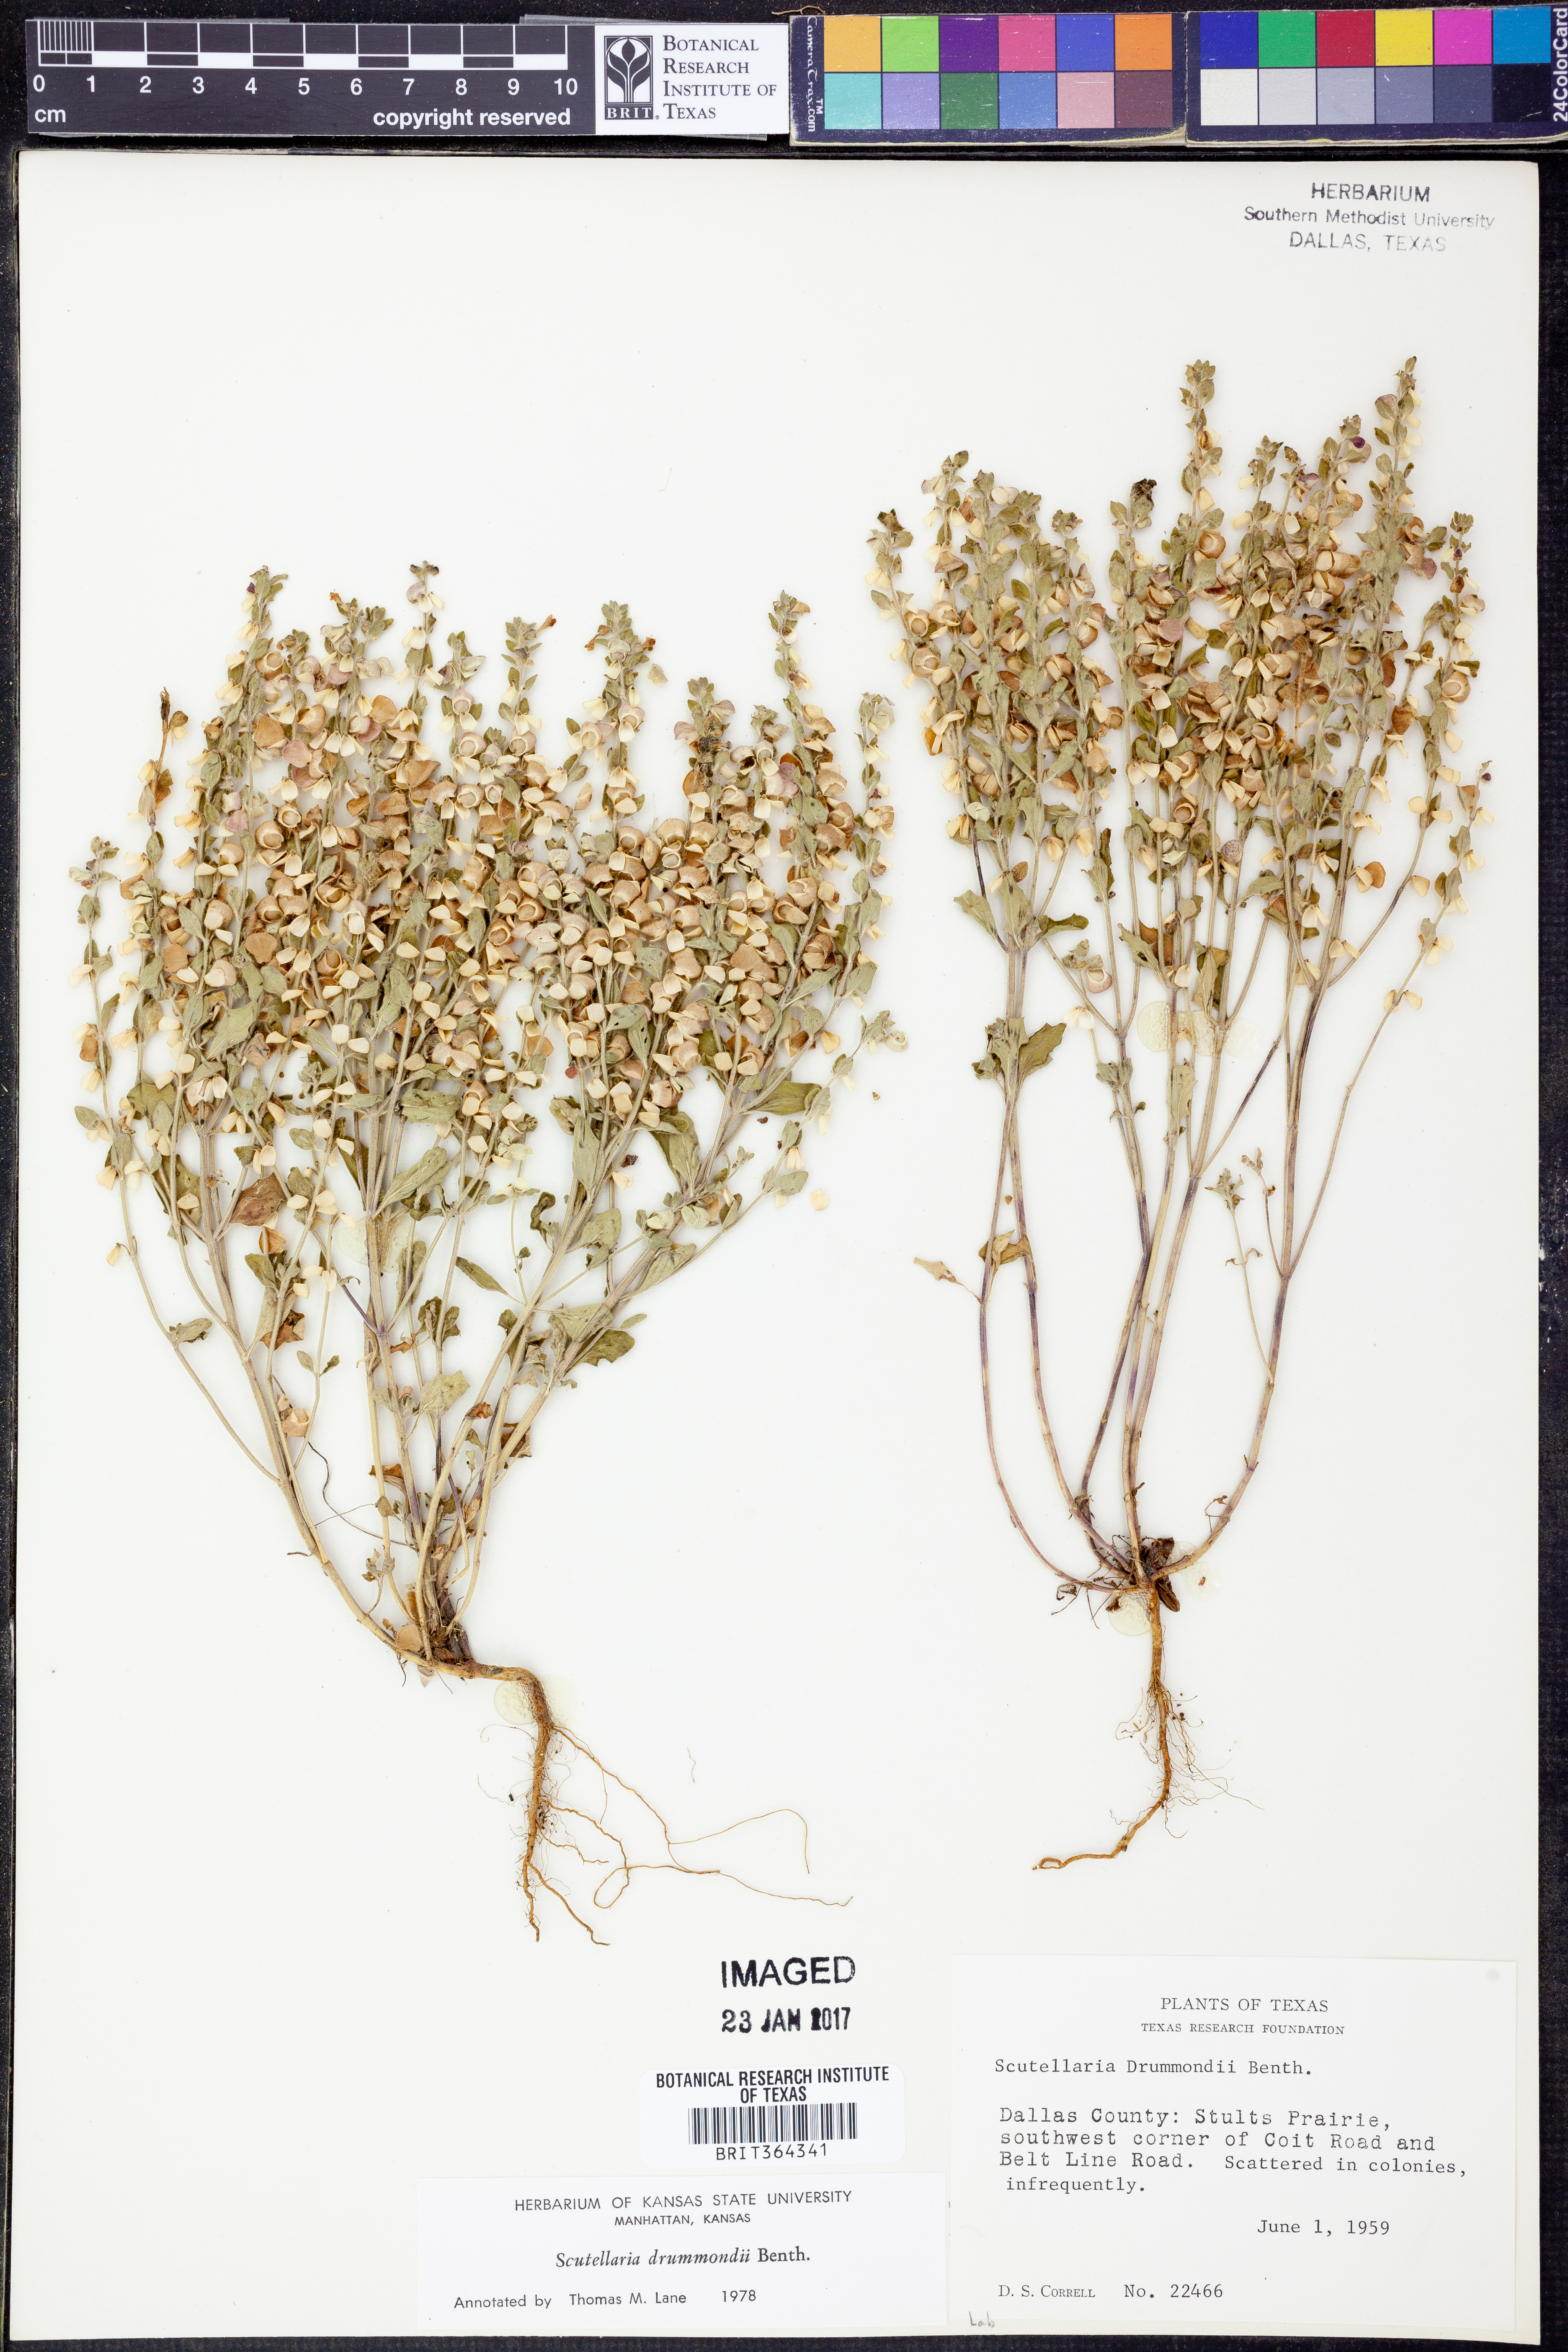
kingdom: Plantae
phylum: Tracheophyta
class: Magnoliopsida
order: Lamiales
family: Lamiaceae
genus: Scutellaria
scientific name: Scutellaria drummondii
